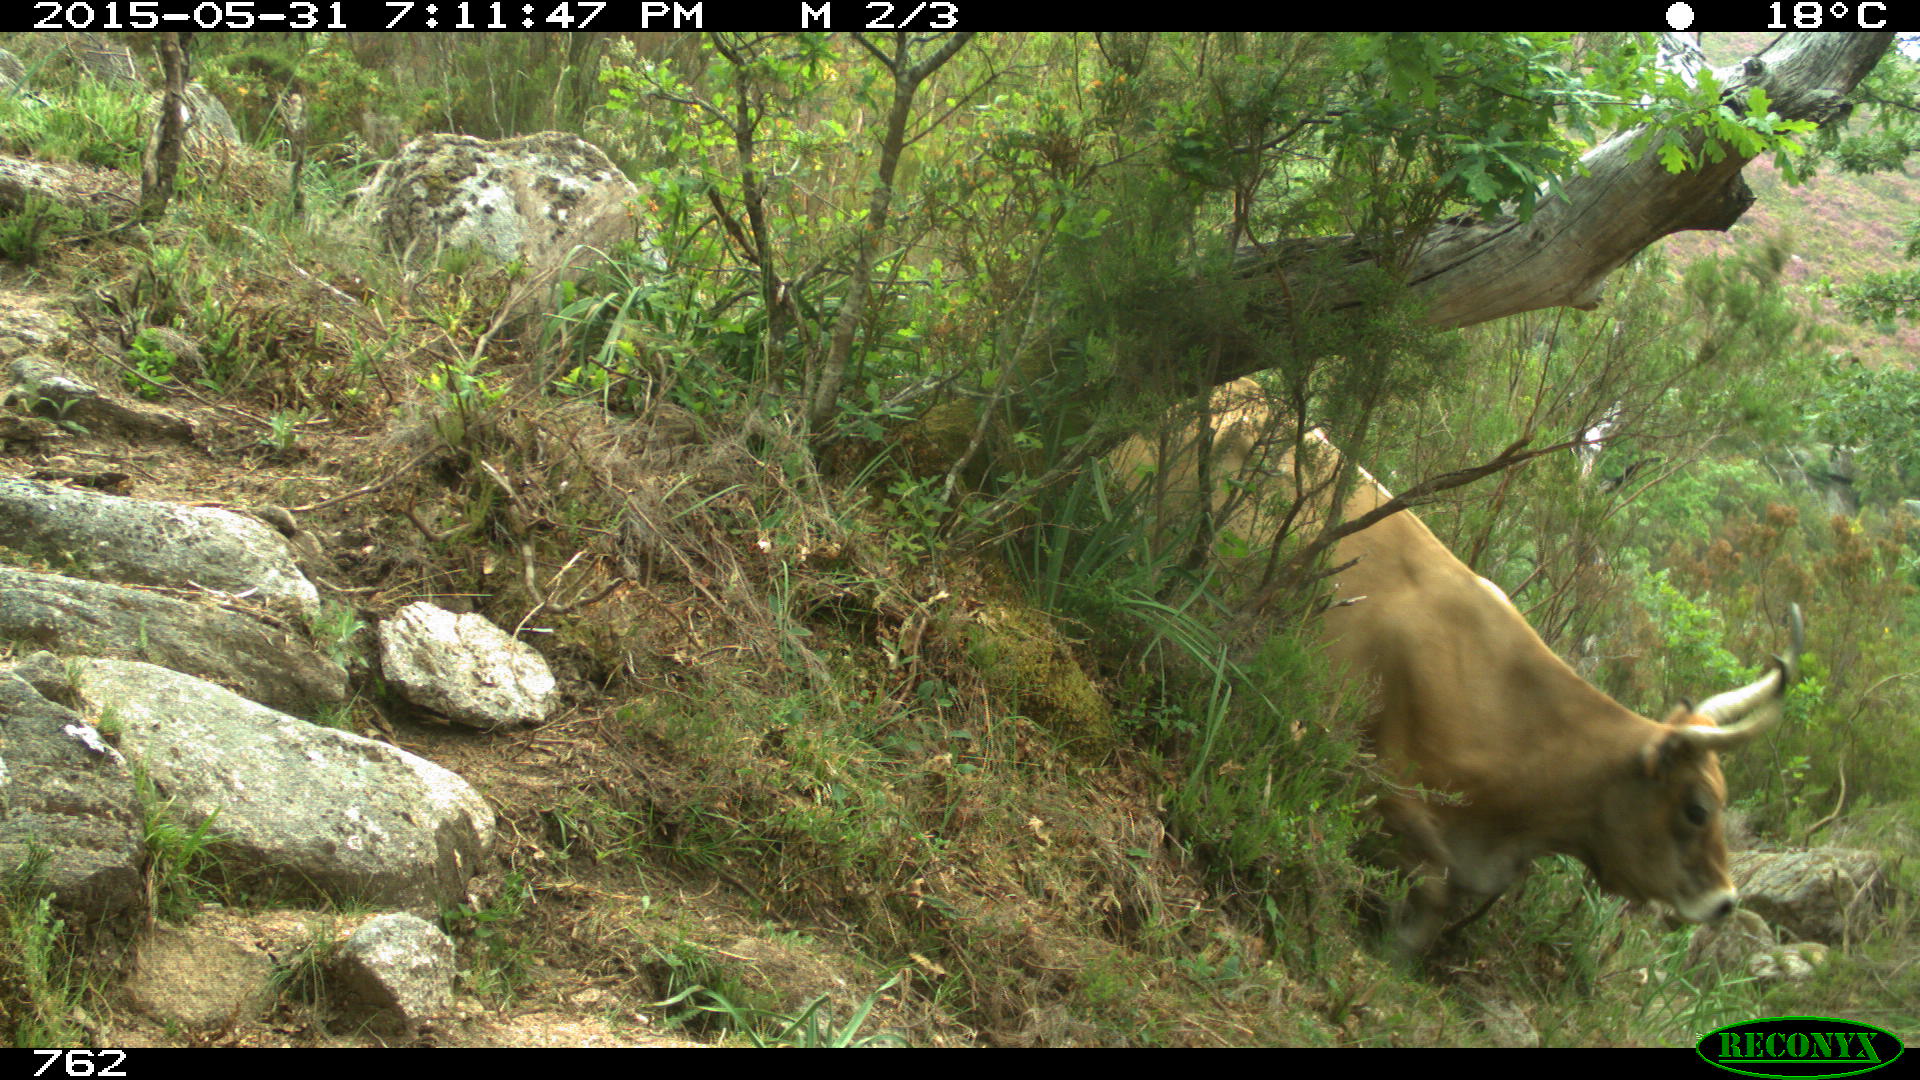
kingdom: Animalia
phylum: Chordata
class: Mammalia
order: Artiodactyla
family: Bovidae
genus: Bos
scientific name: Bos taurus
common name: Domesticated cattle
